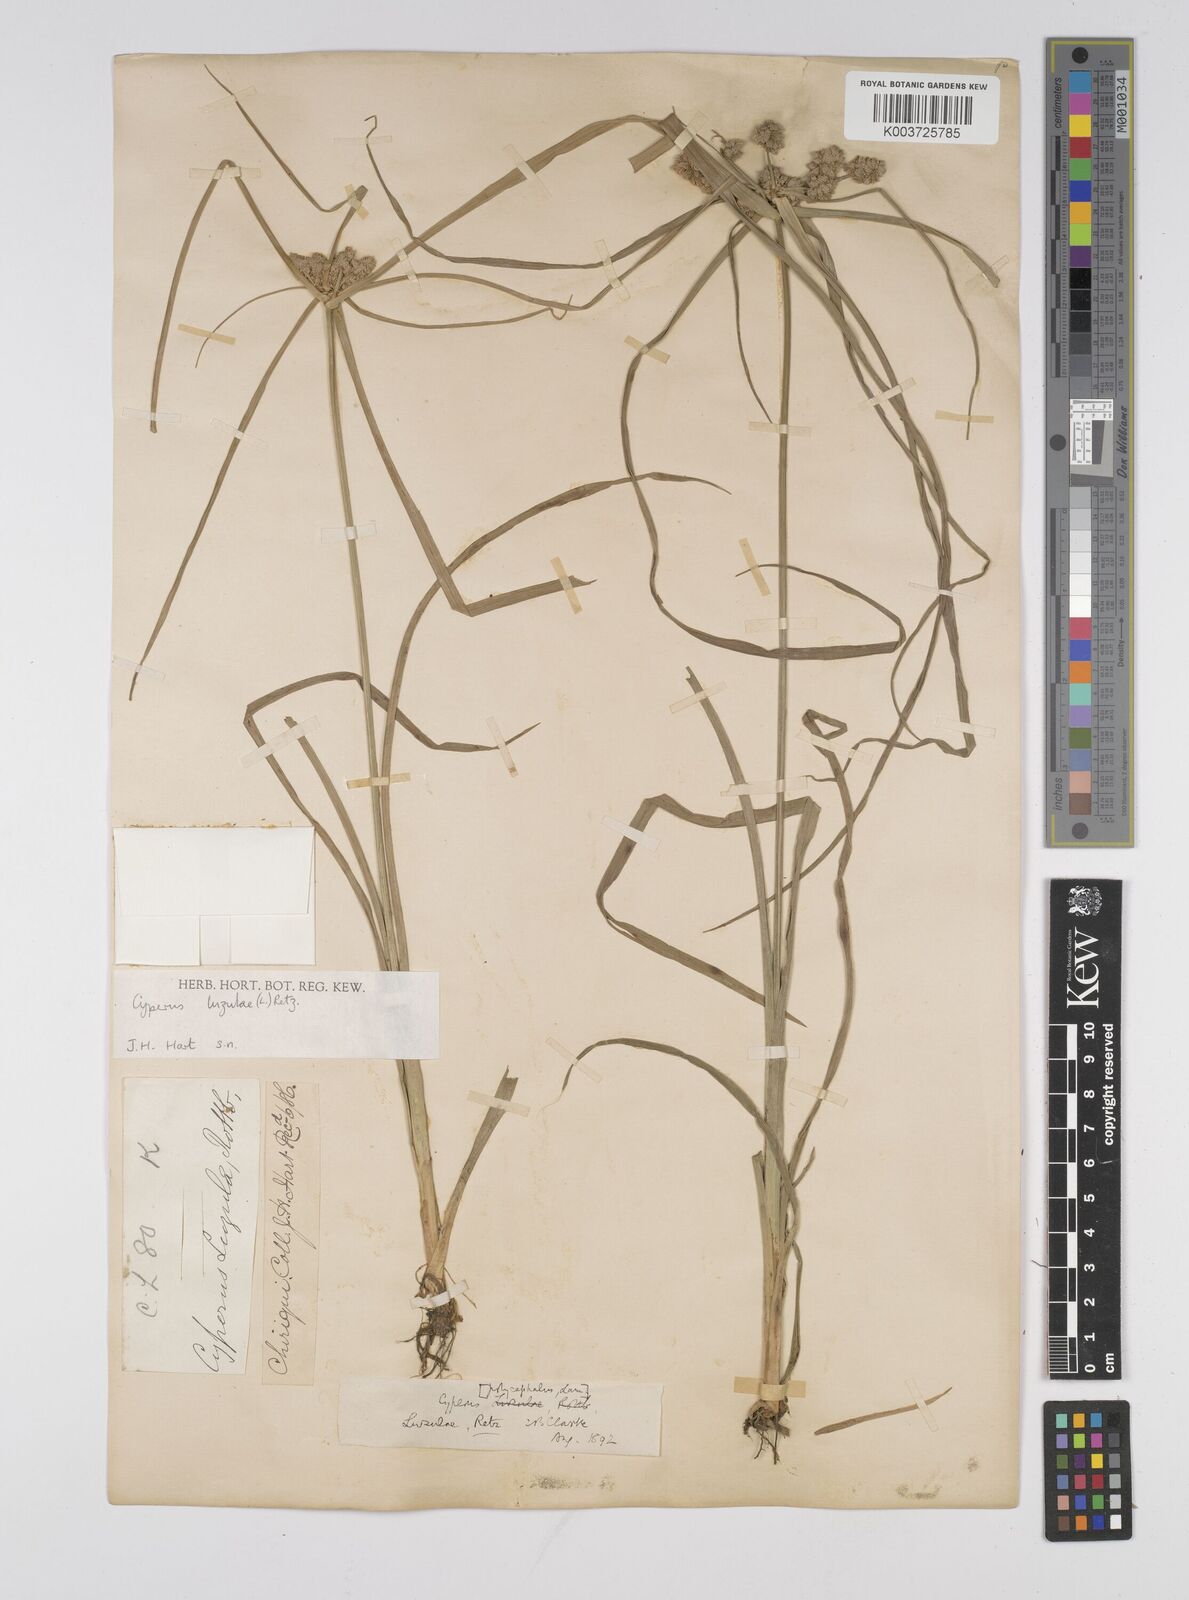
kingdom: Plantae
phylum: Tracheophyta
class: Liliopsida
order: Poales
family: Cyperaceae
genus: Cyperus
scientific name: Cyperus luzulae
